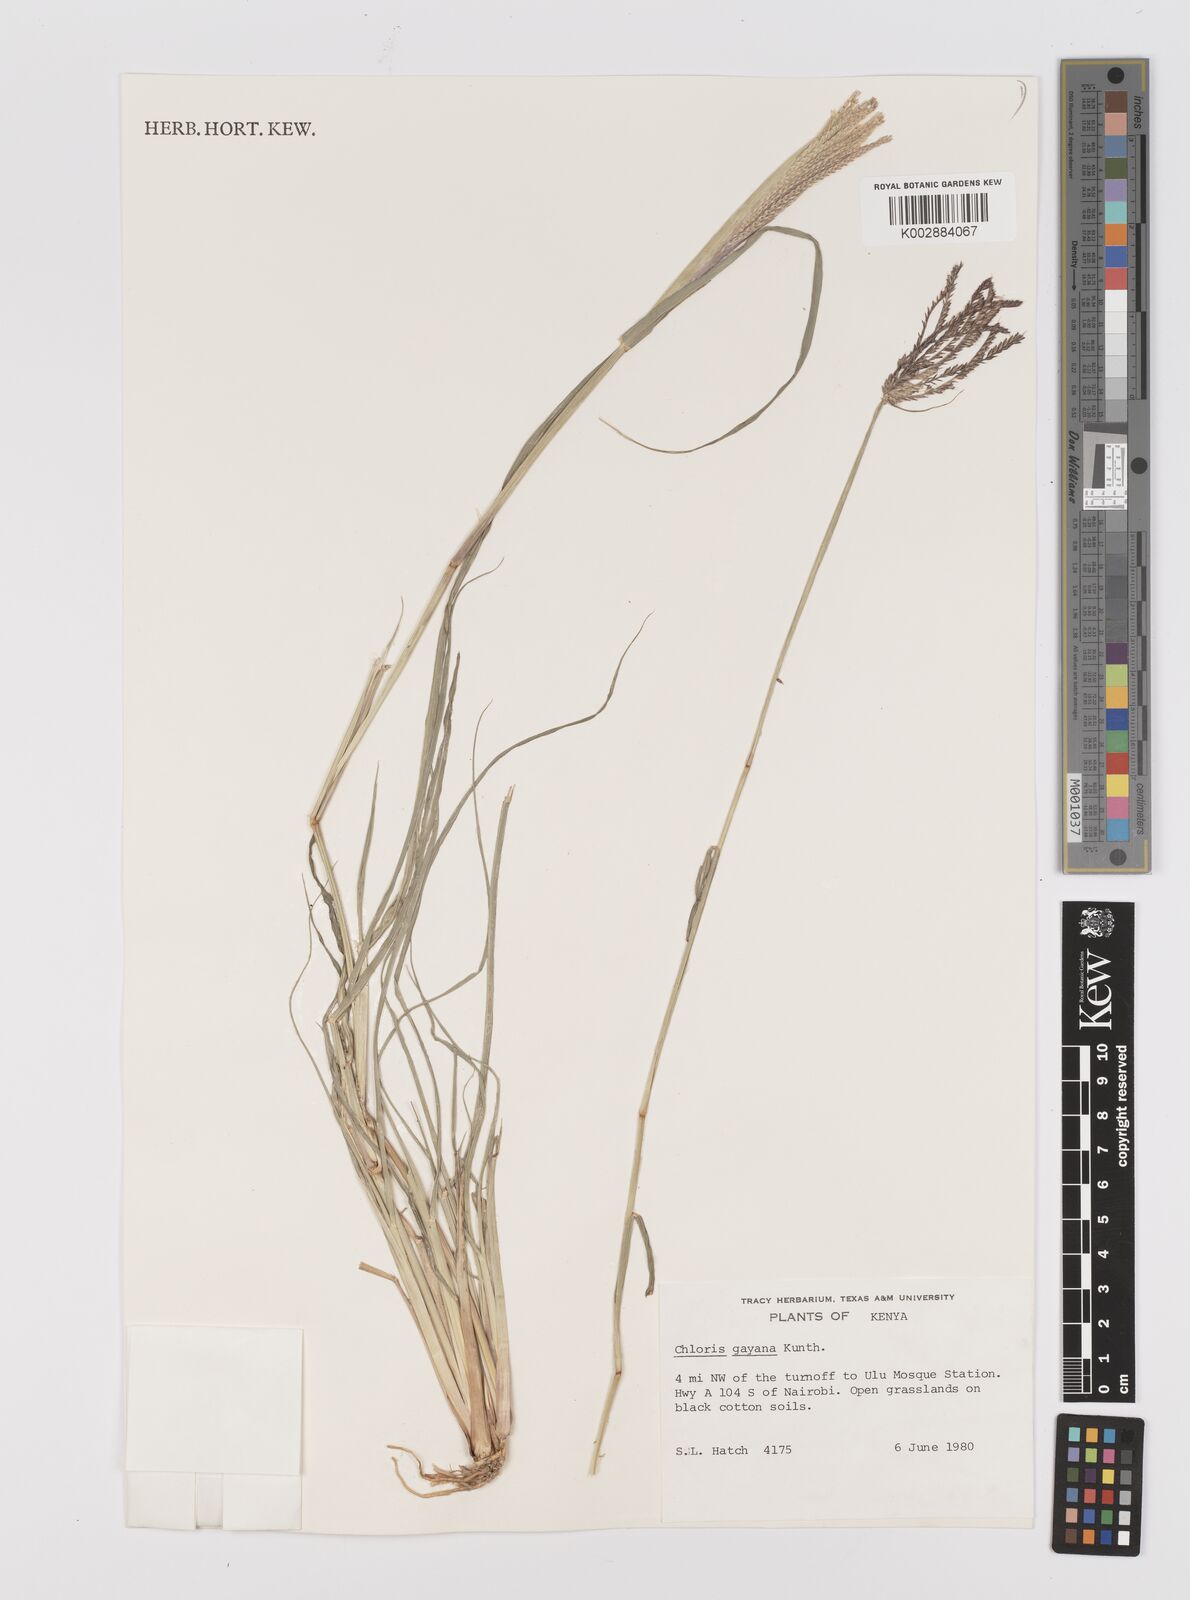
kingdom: Plantae
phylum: Tracheophyta
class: Liliopsida
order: Poales
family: Poaceae
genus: Chloris
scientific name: Chloris gayana
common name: Rhodes grass
